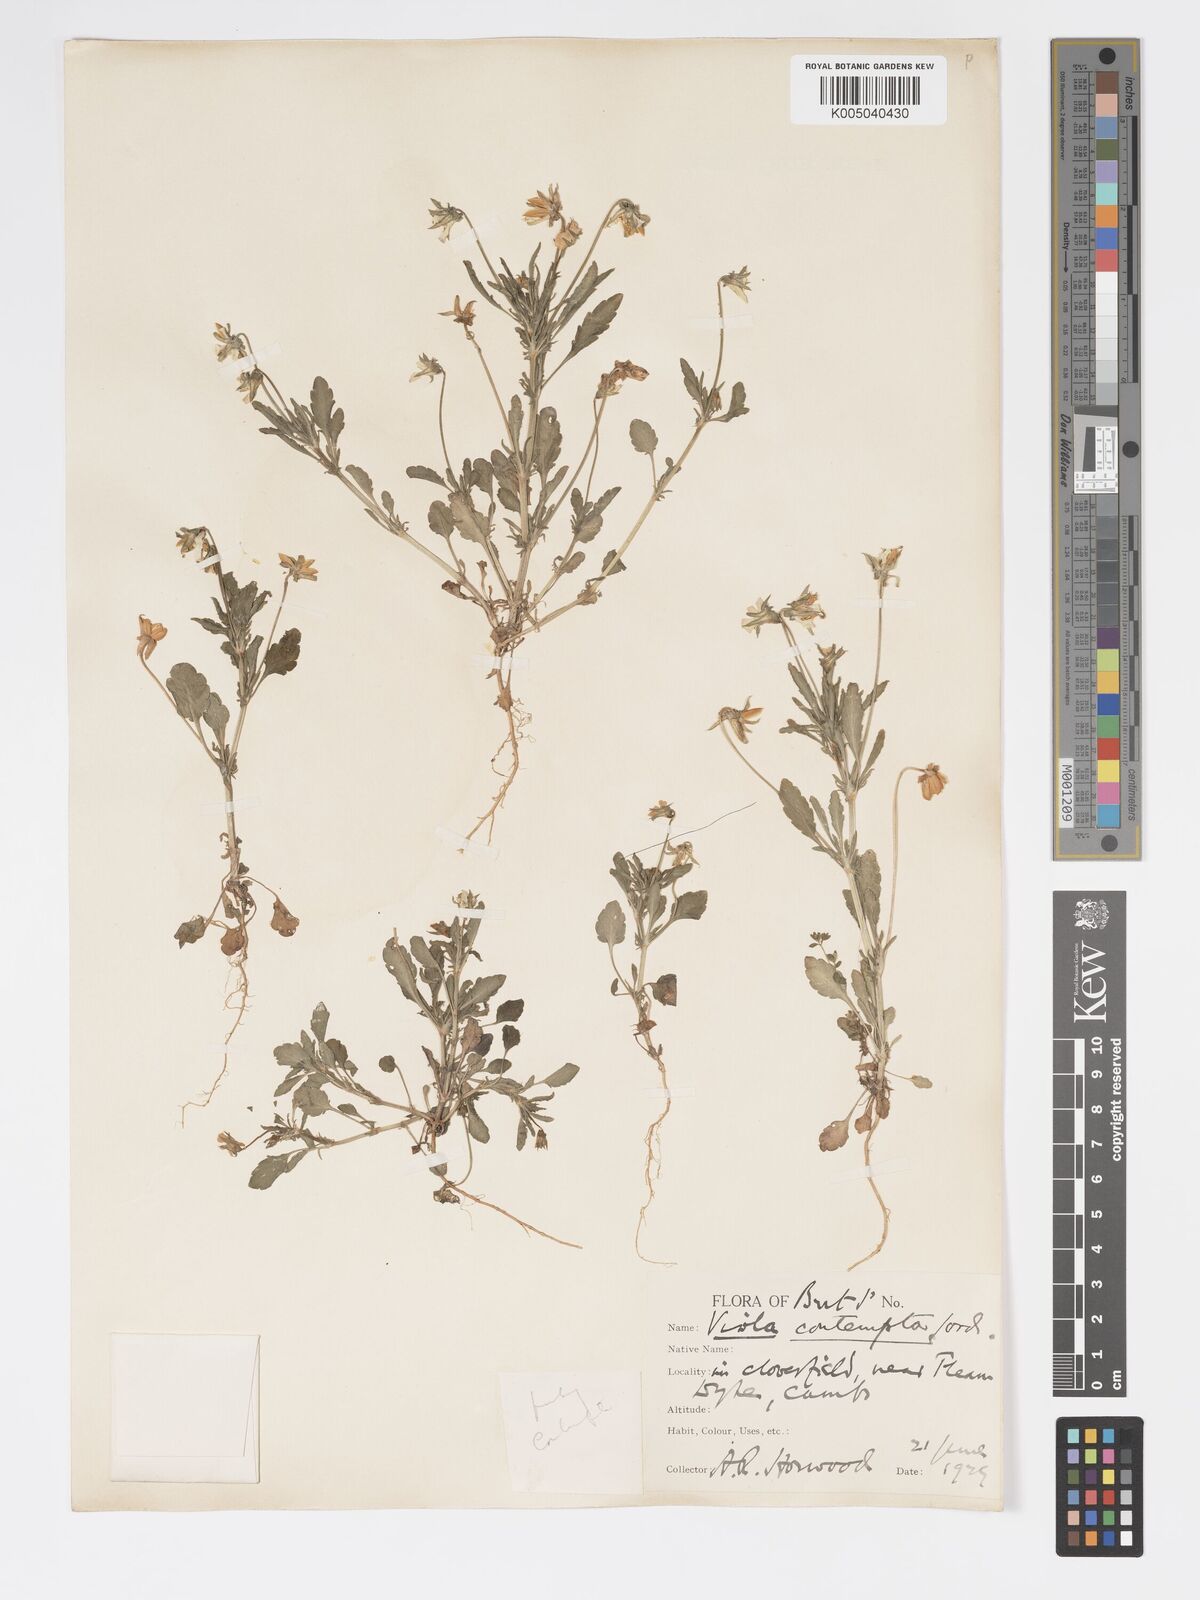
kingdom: Plantae
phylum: Tracheophyta
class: Magnoliopsida
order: Malpighiales
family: Violaceae
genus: Viola
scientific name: Viola arvensis
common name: Field pansy
